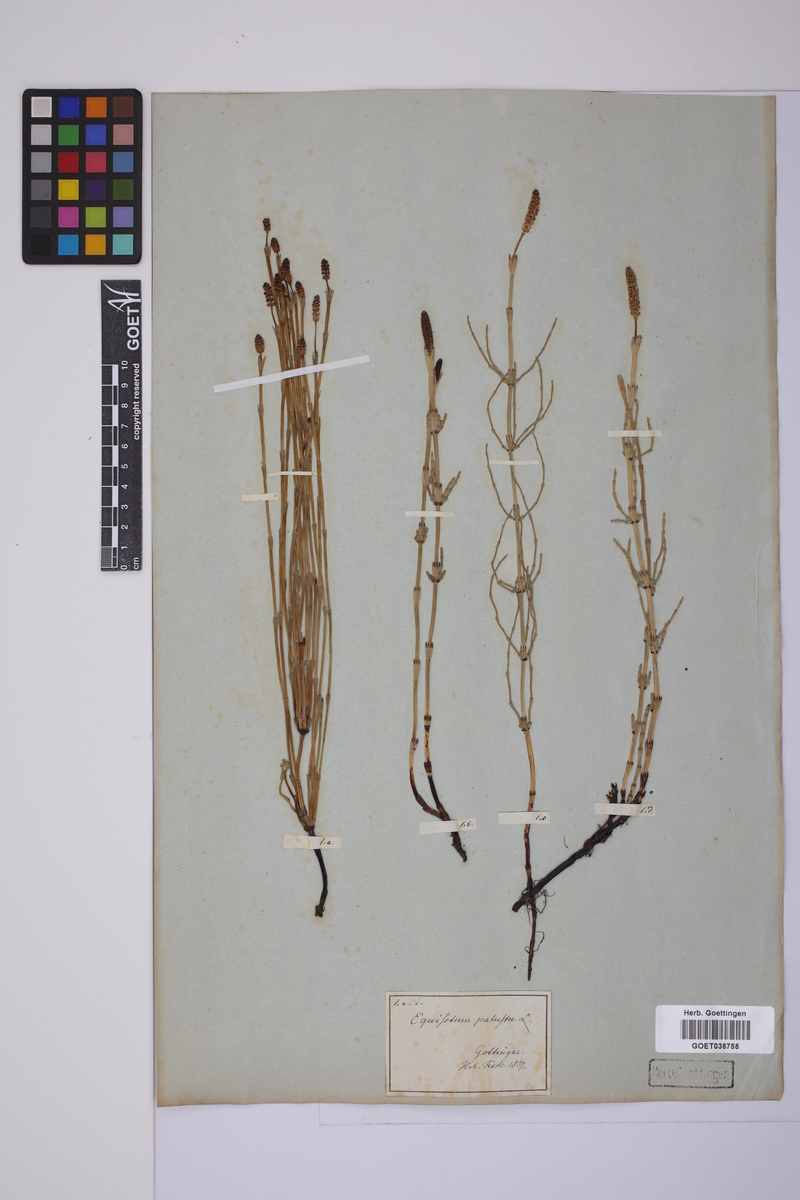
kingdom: Plantae
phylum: Tracheophyta
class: Polypodiopsida
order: Equisetales
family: Equisetaceae
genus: Equisetum
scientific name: Equisetum palustre
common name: Marsh horsetail
